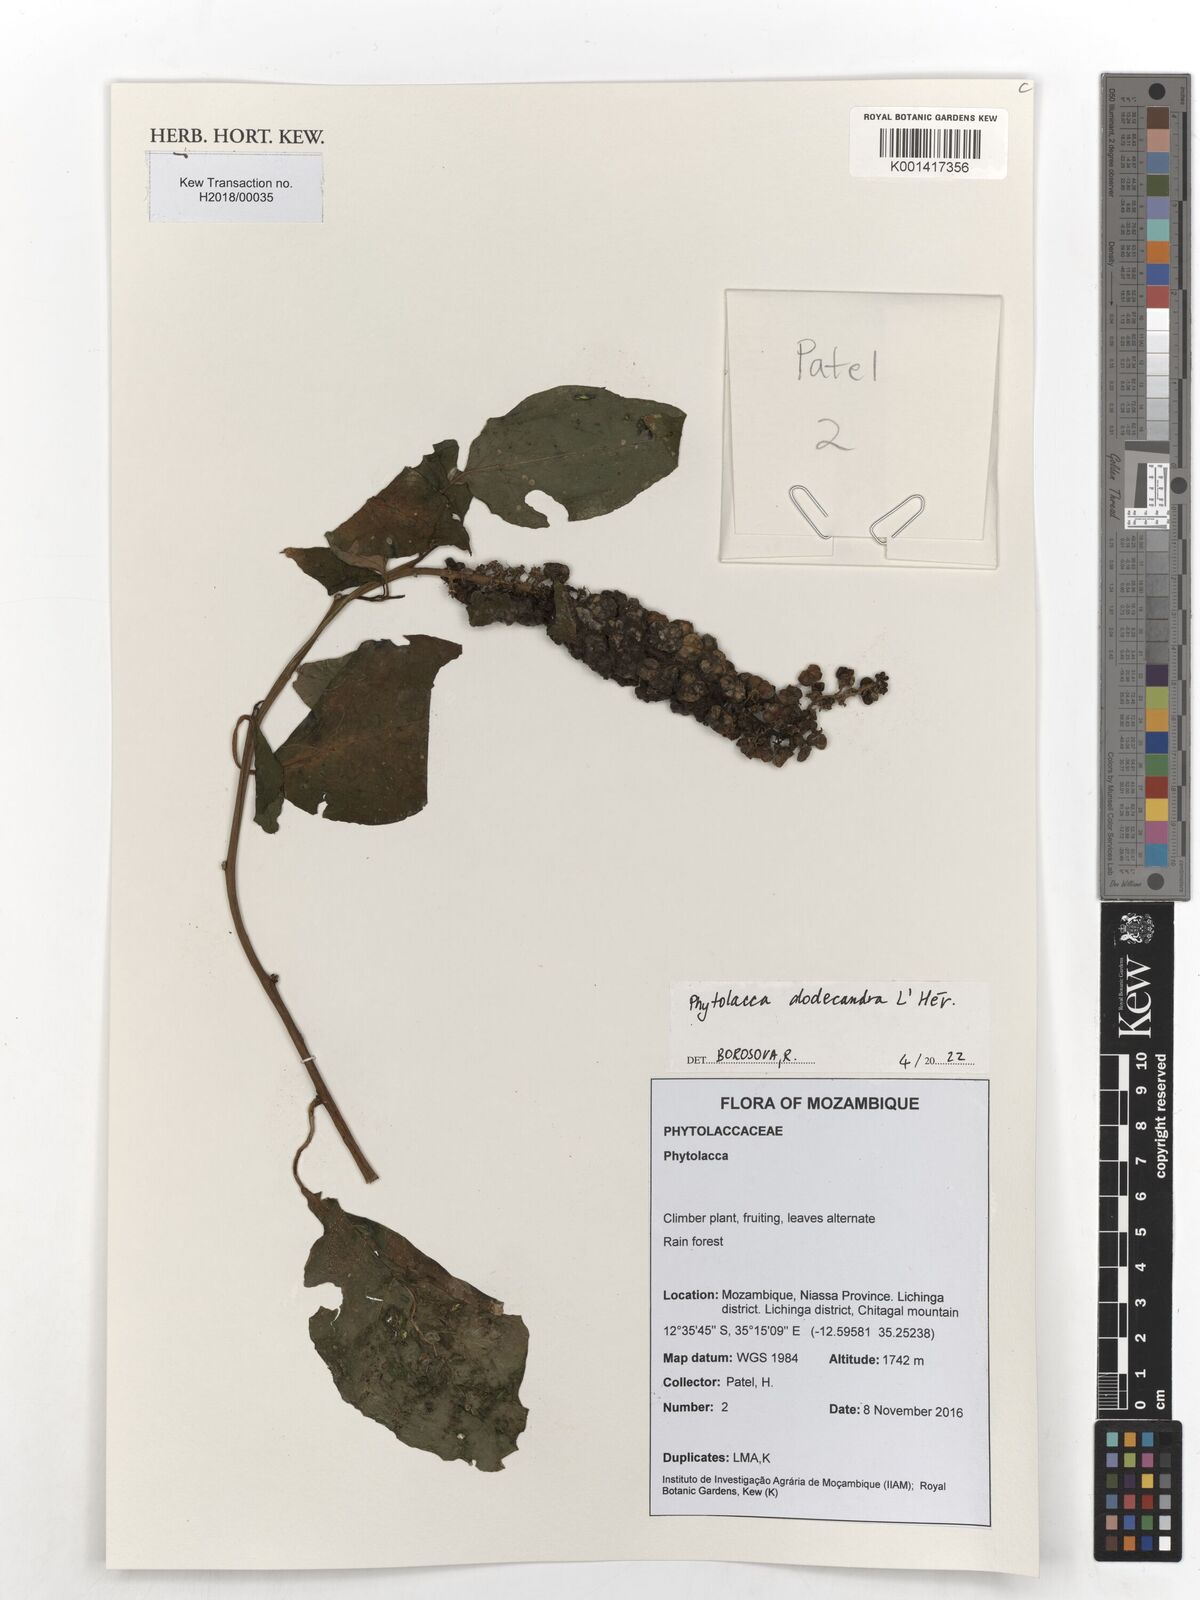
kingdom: Plantae
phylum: Tracheophyta
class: Magnoliopsida
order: Caryophyllales
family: Phytolaccaceae
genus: Phytolacca
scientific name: Phytolacca dodecandra
